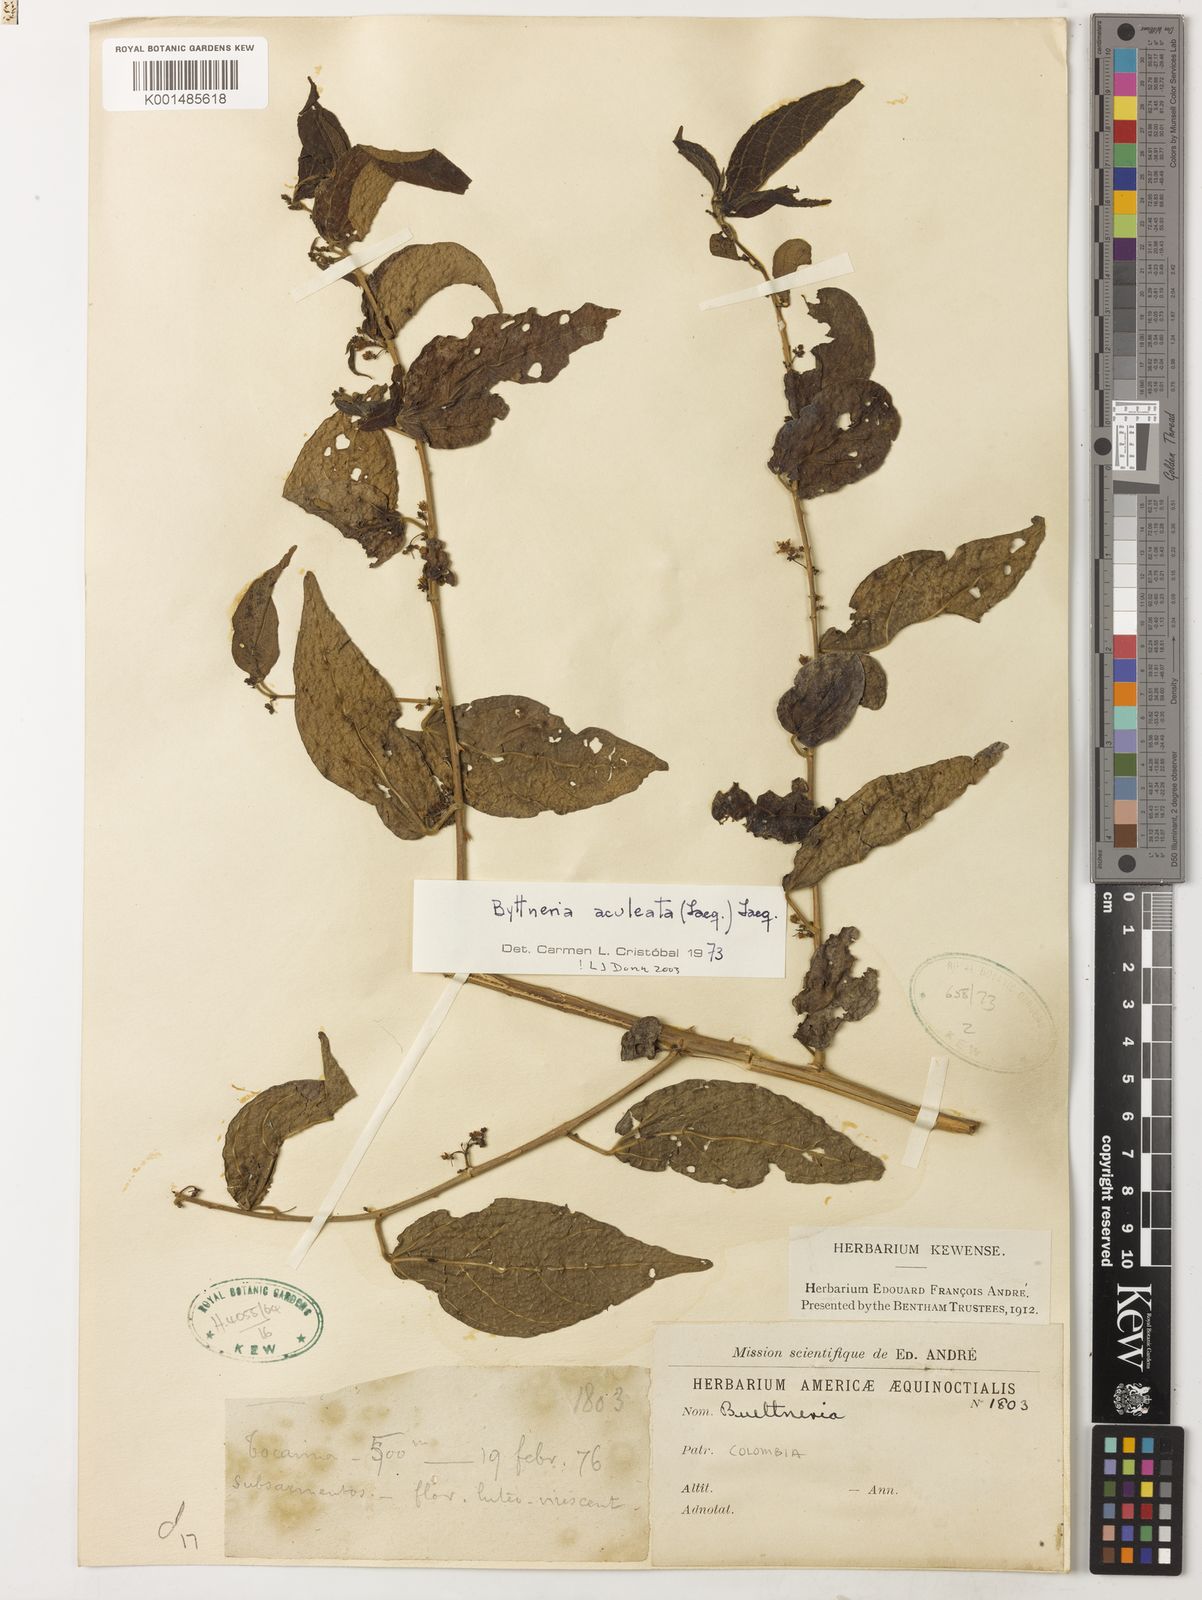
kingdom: Plantae
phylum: Tracheophyta
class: Magnoliopsida
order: Malvales
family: Malvaceae
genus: Byttneria
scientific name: Byttneria aculeata
